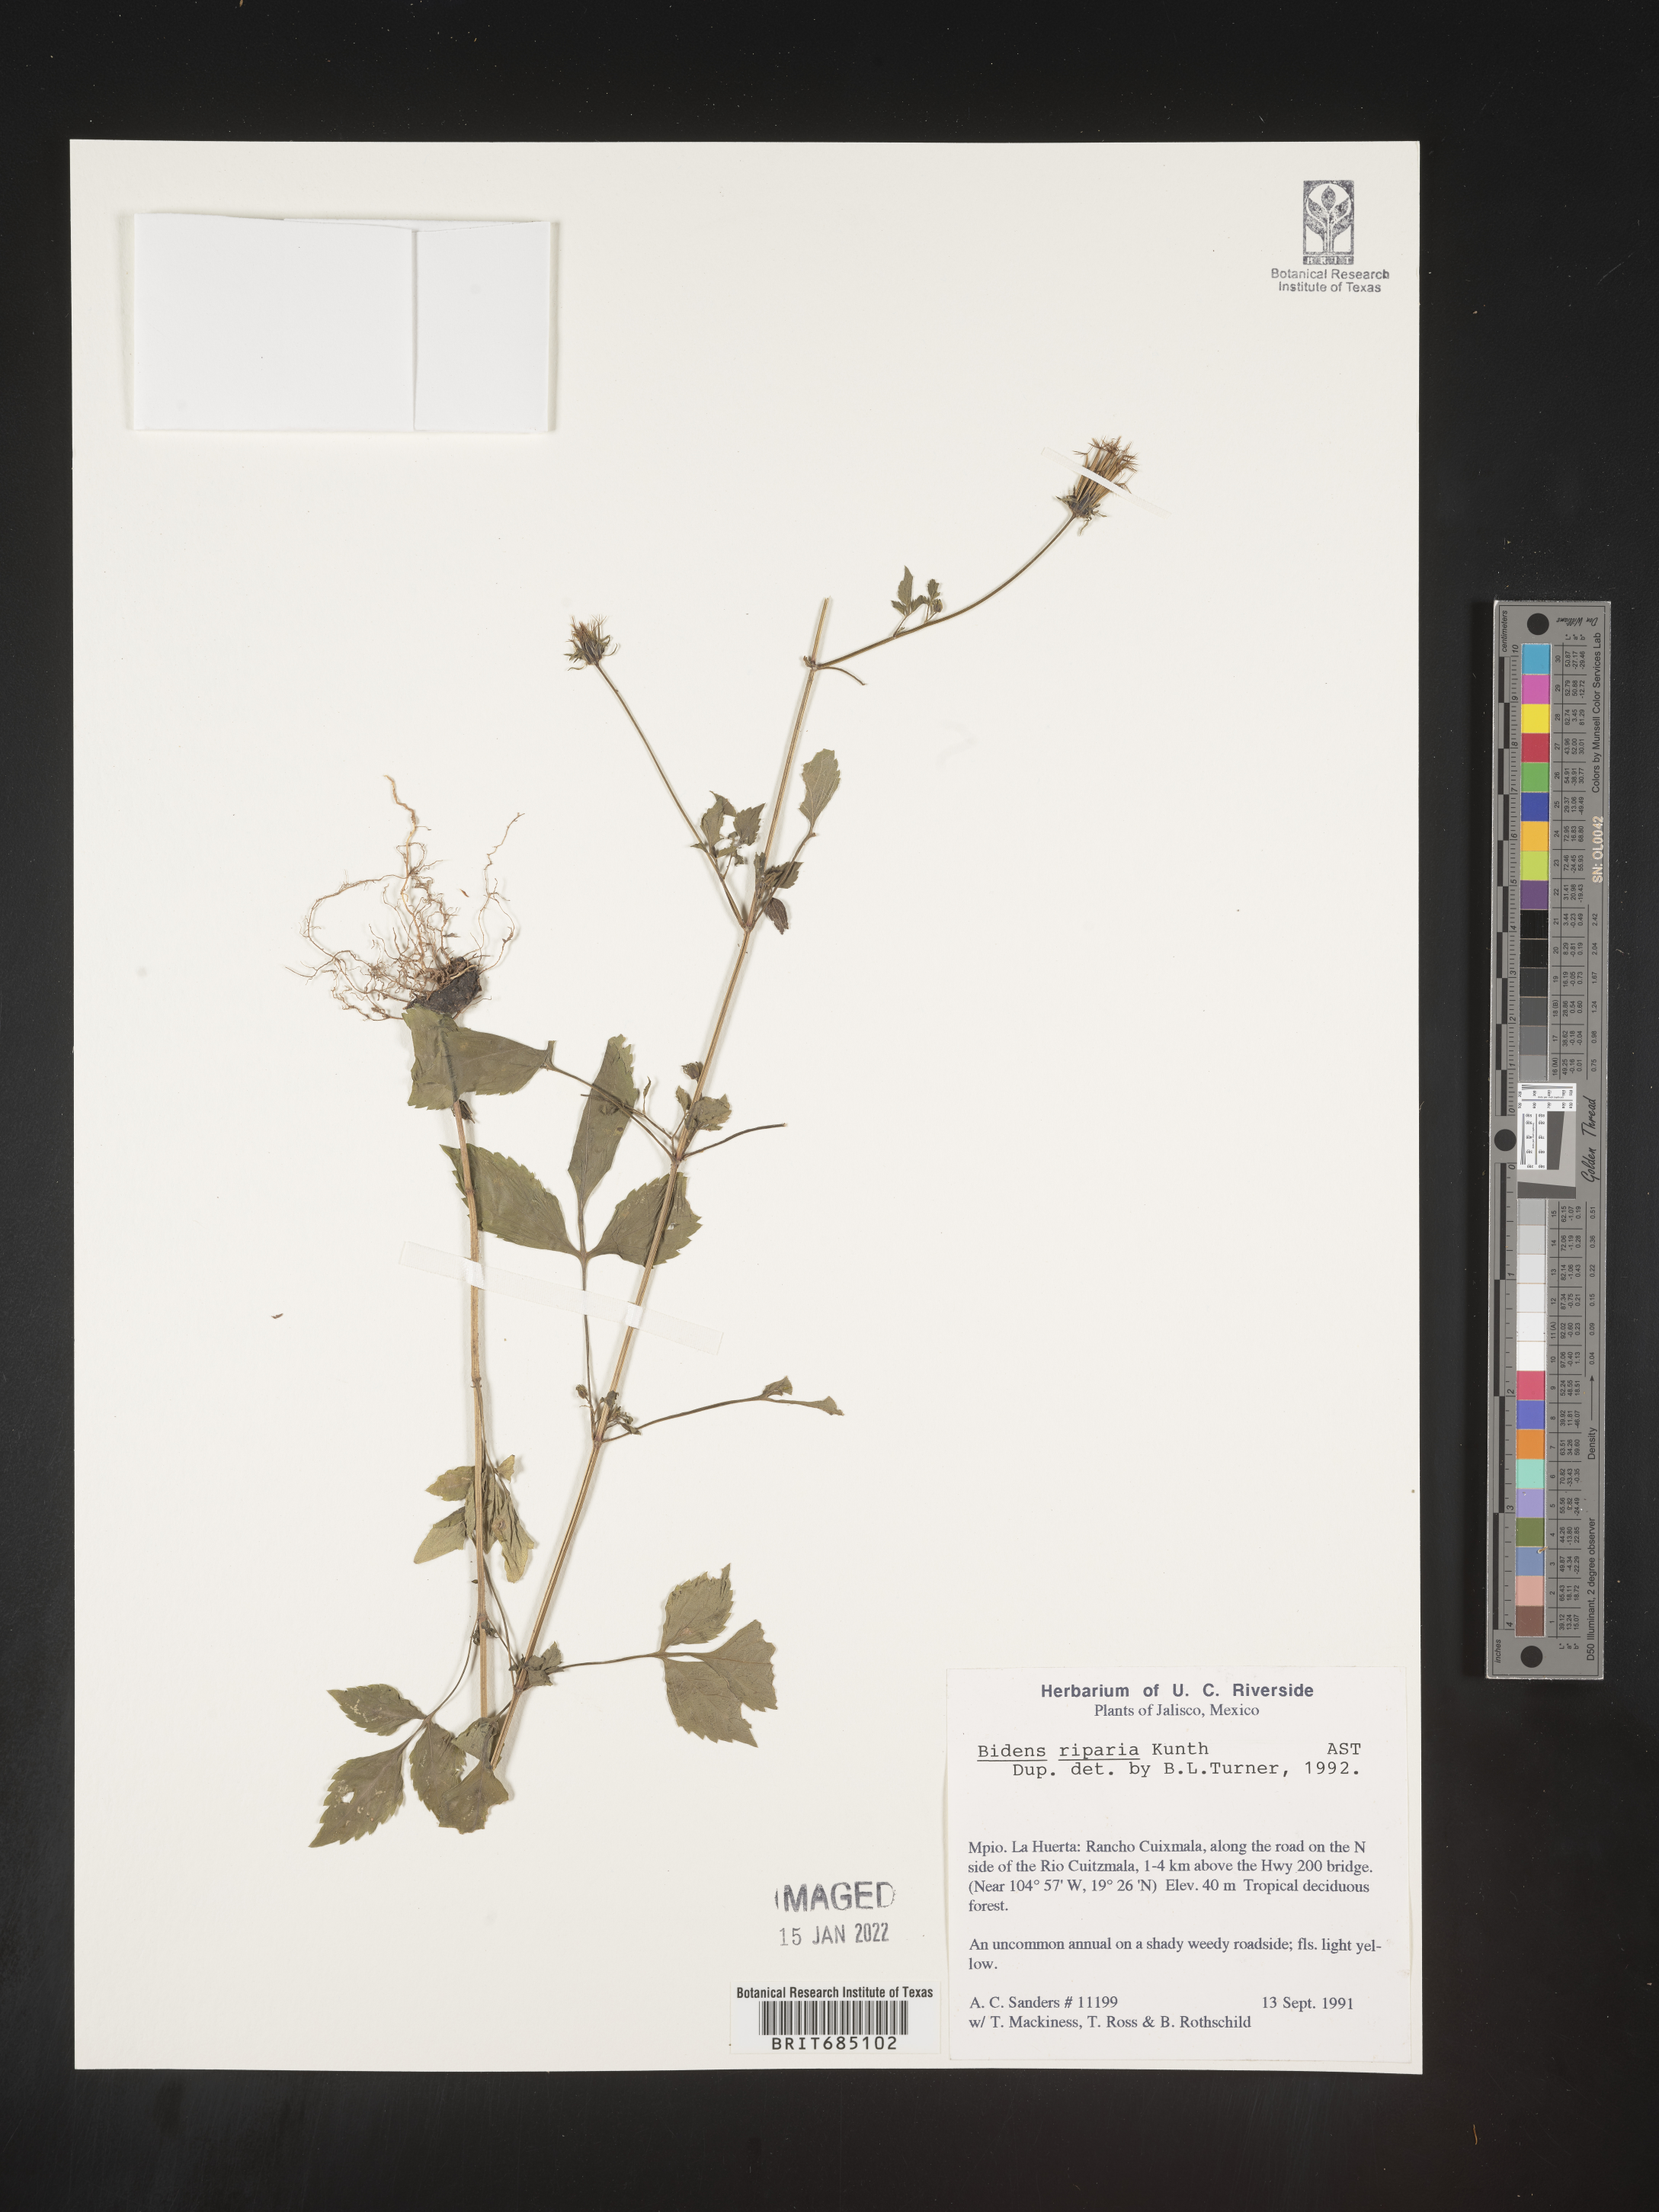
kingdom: Plantae
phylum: Tracheophyta
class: Magnoliopsida
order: Asterales
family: Asteraceae
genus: Bidens
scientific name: Bidens
